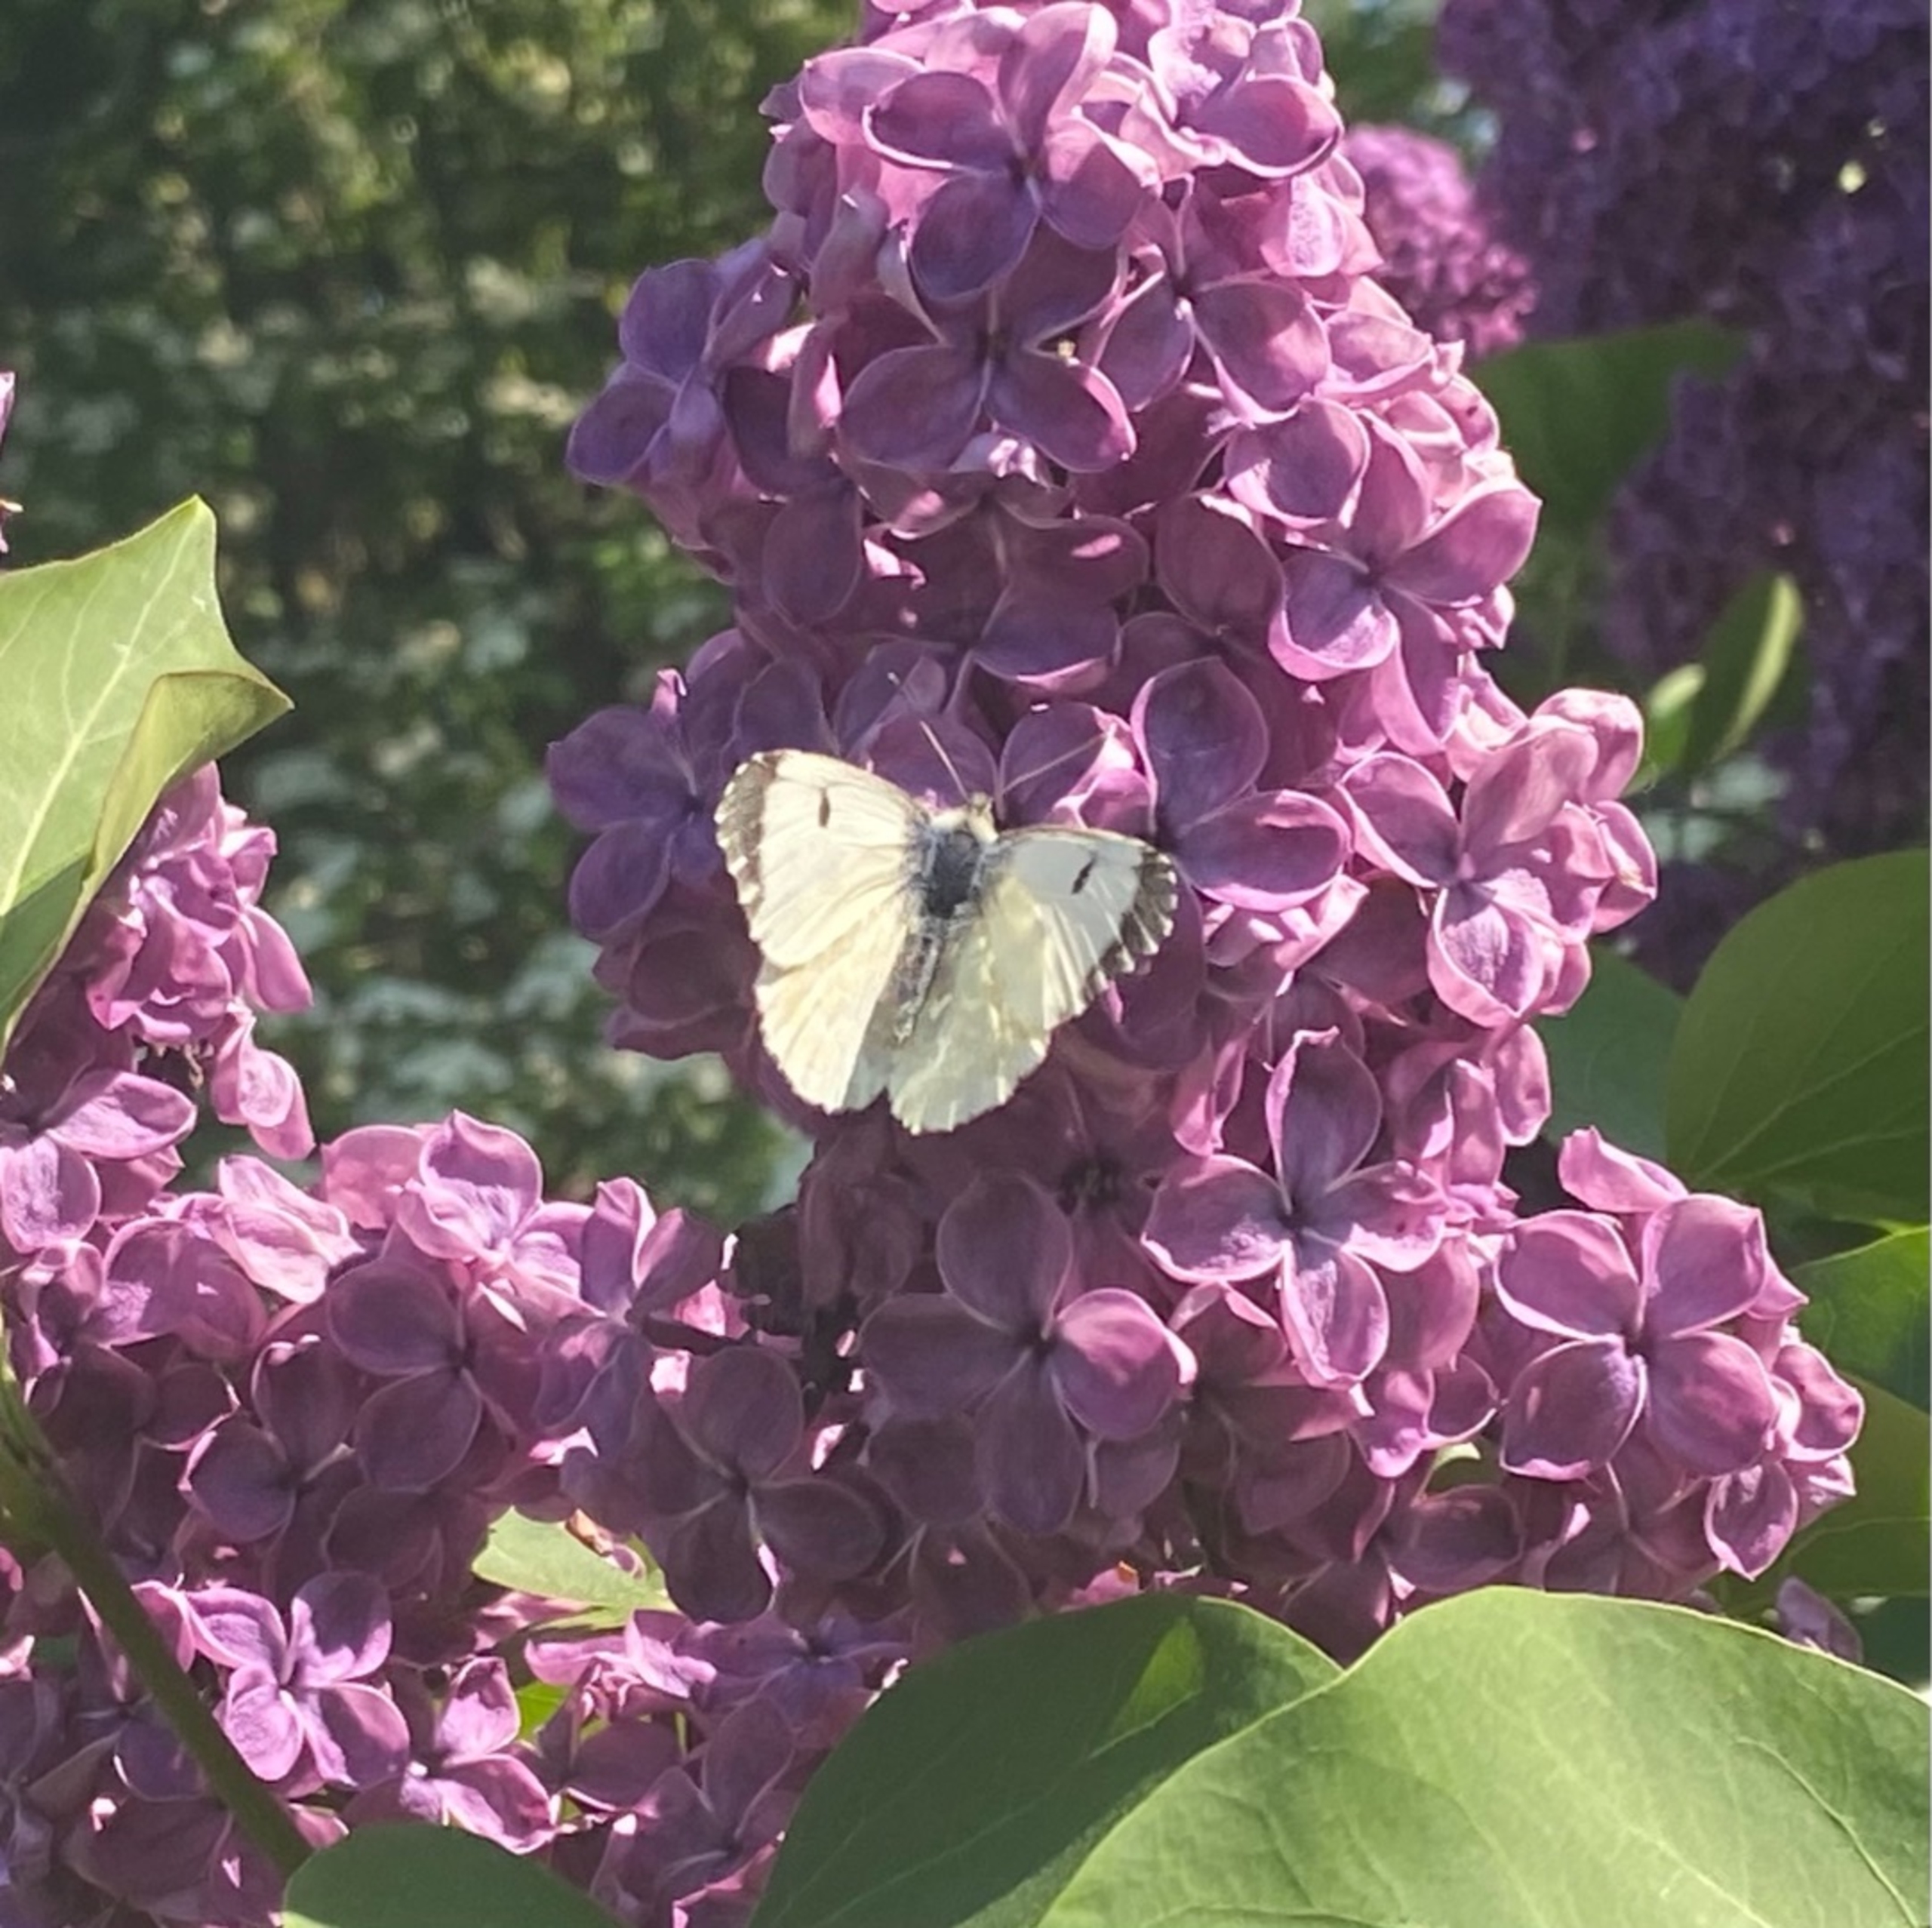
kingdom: Animalia
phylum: Arthropoda
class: Insecta
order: Lepidoptera
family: Pieridae
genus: Anthocharis
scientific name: Anthocharis cardamines
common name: Aurora
